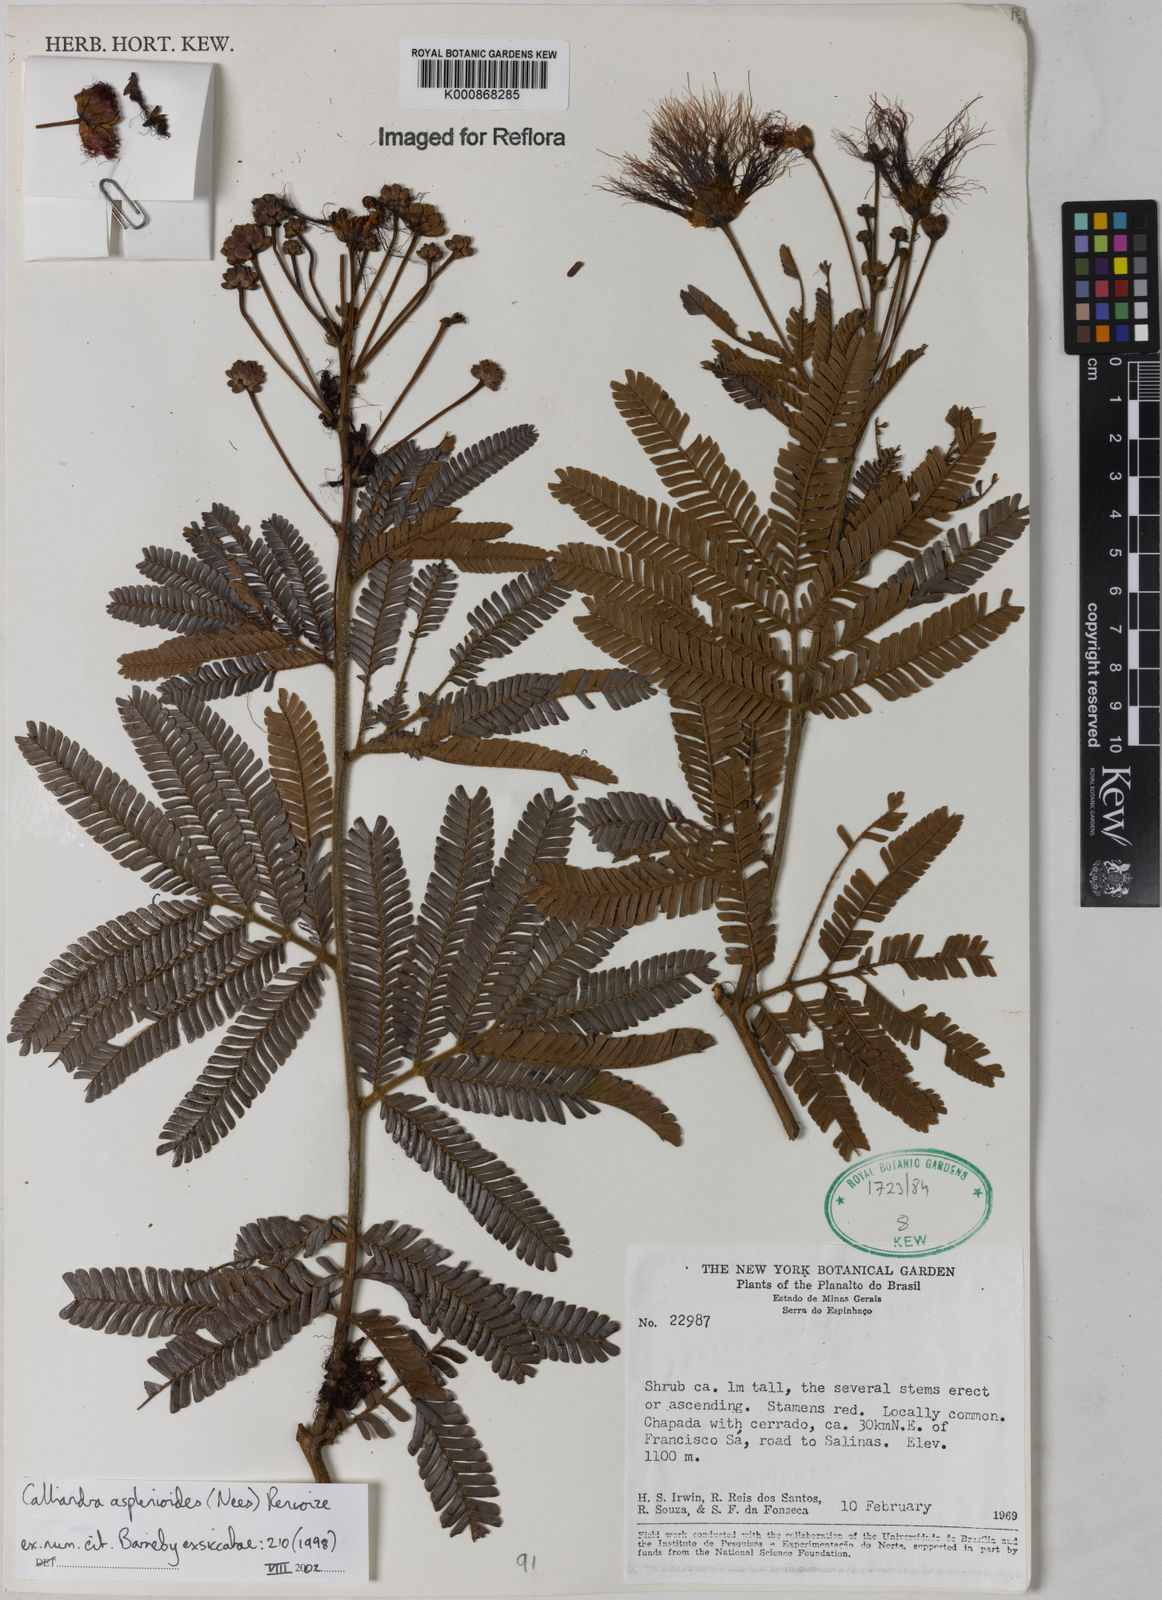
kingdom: Plantae
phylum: Tracheophyta
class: Magnoliopsida
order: Fabales
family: Fabaceae
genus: Calliandra
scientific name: Calliandra
